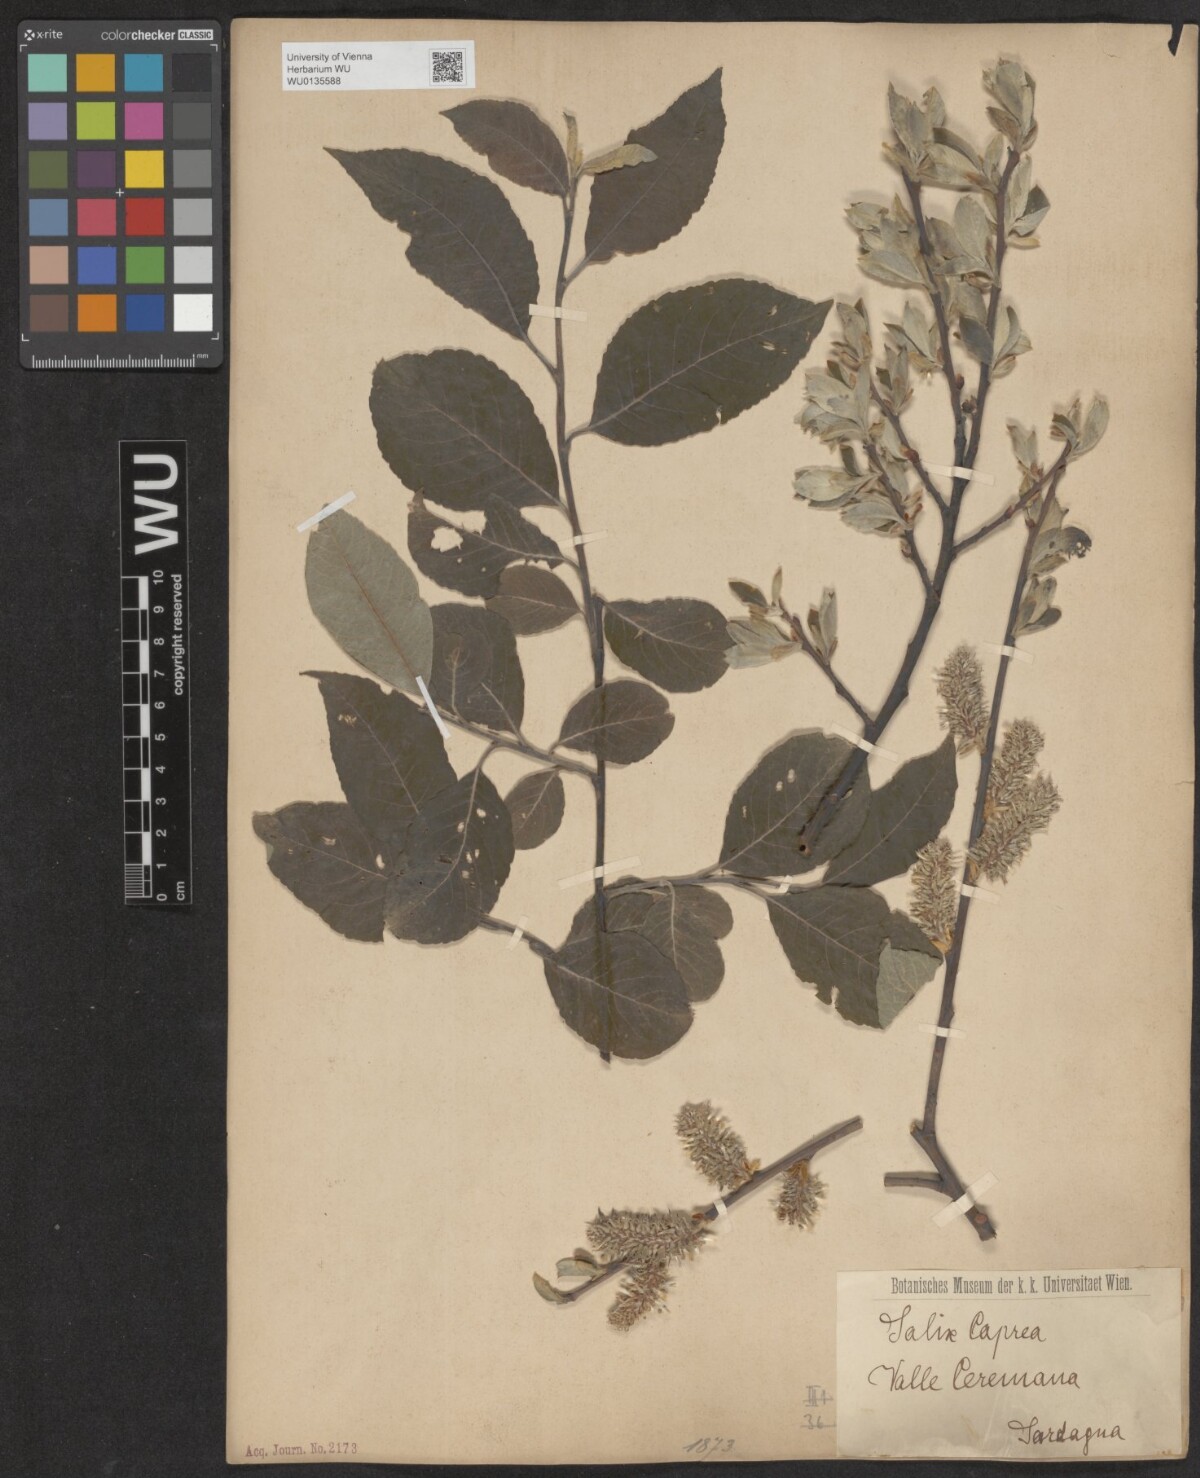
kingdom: Plantae
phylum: Tracheophyta
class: Magnoliopsida
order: Malpighiales
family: Salicaceae
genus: Salix
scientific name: Salix caprea
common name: Goat willow
